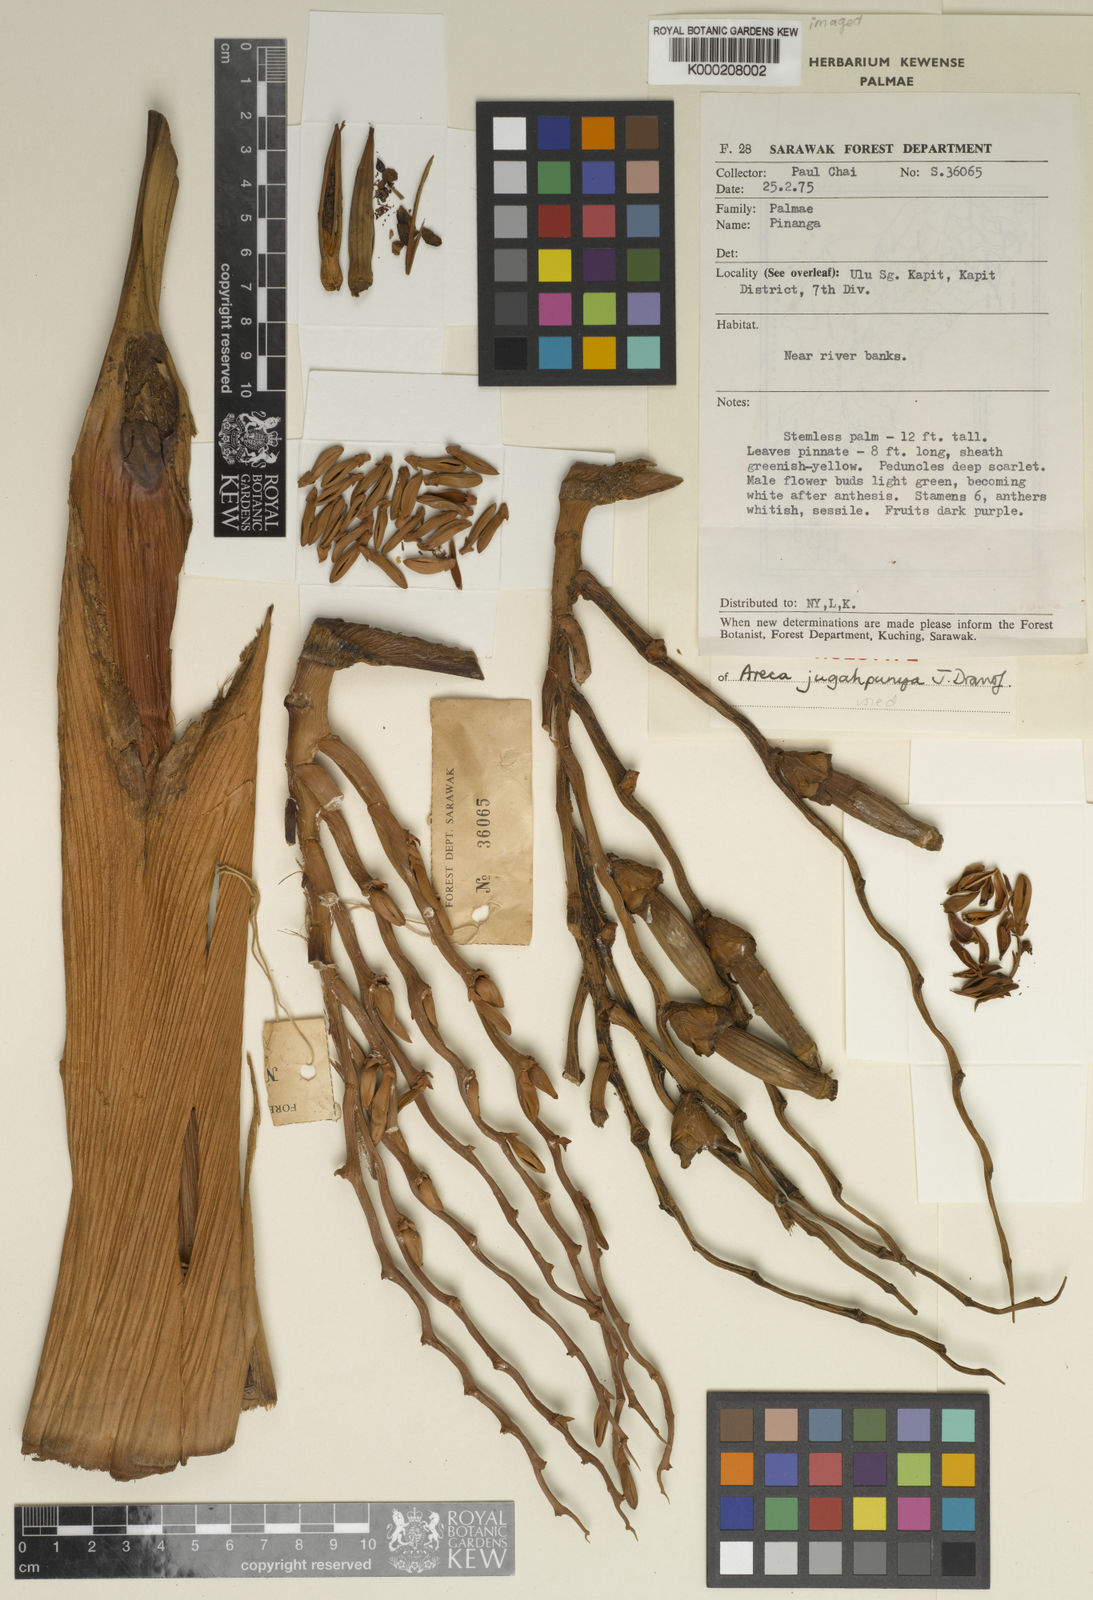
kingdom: Plantae
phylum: Tracheophyta
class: Liliopsida
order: Arecales
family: Arecaceae
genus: Areca
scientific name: Areca jugahpunya
